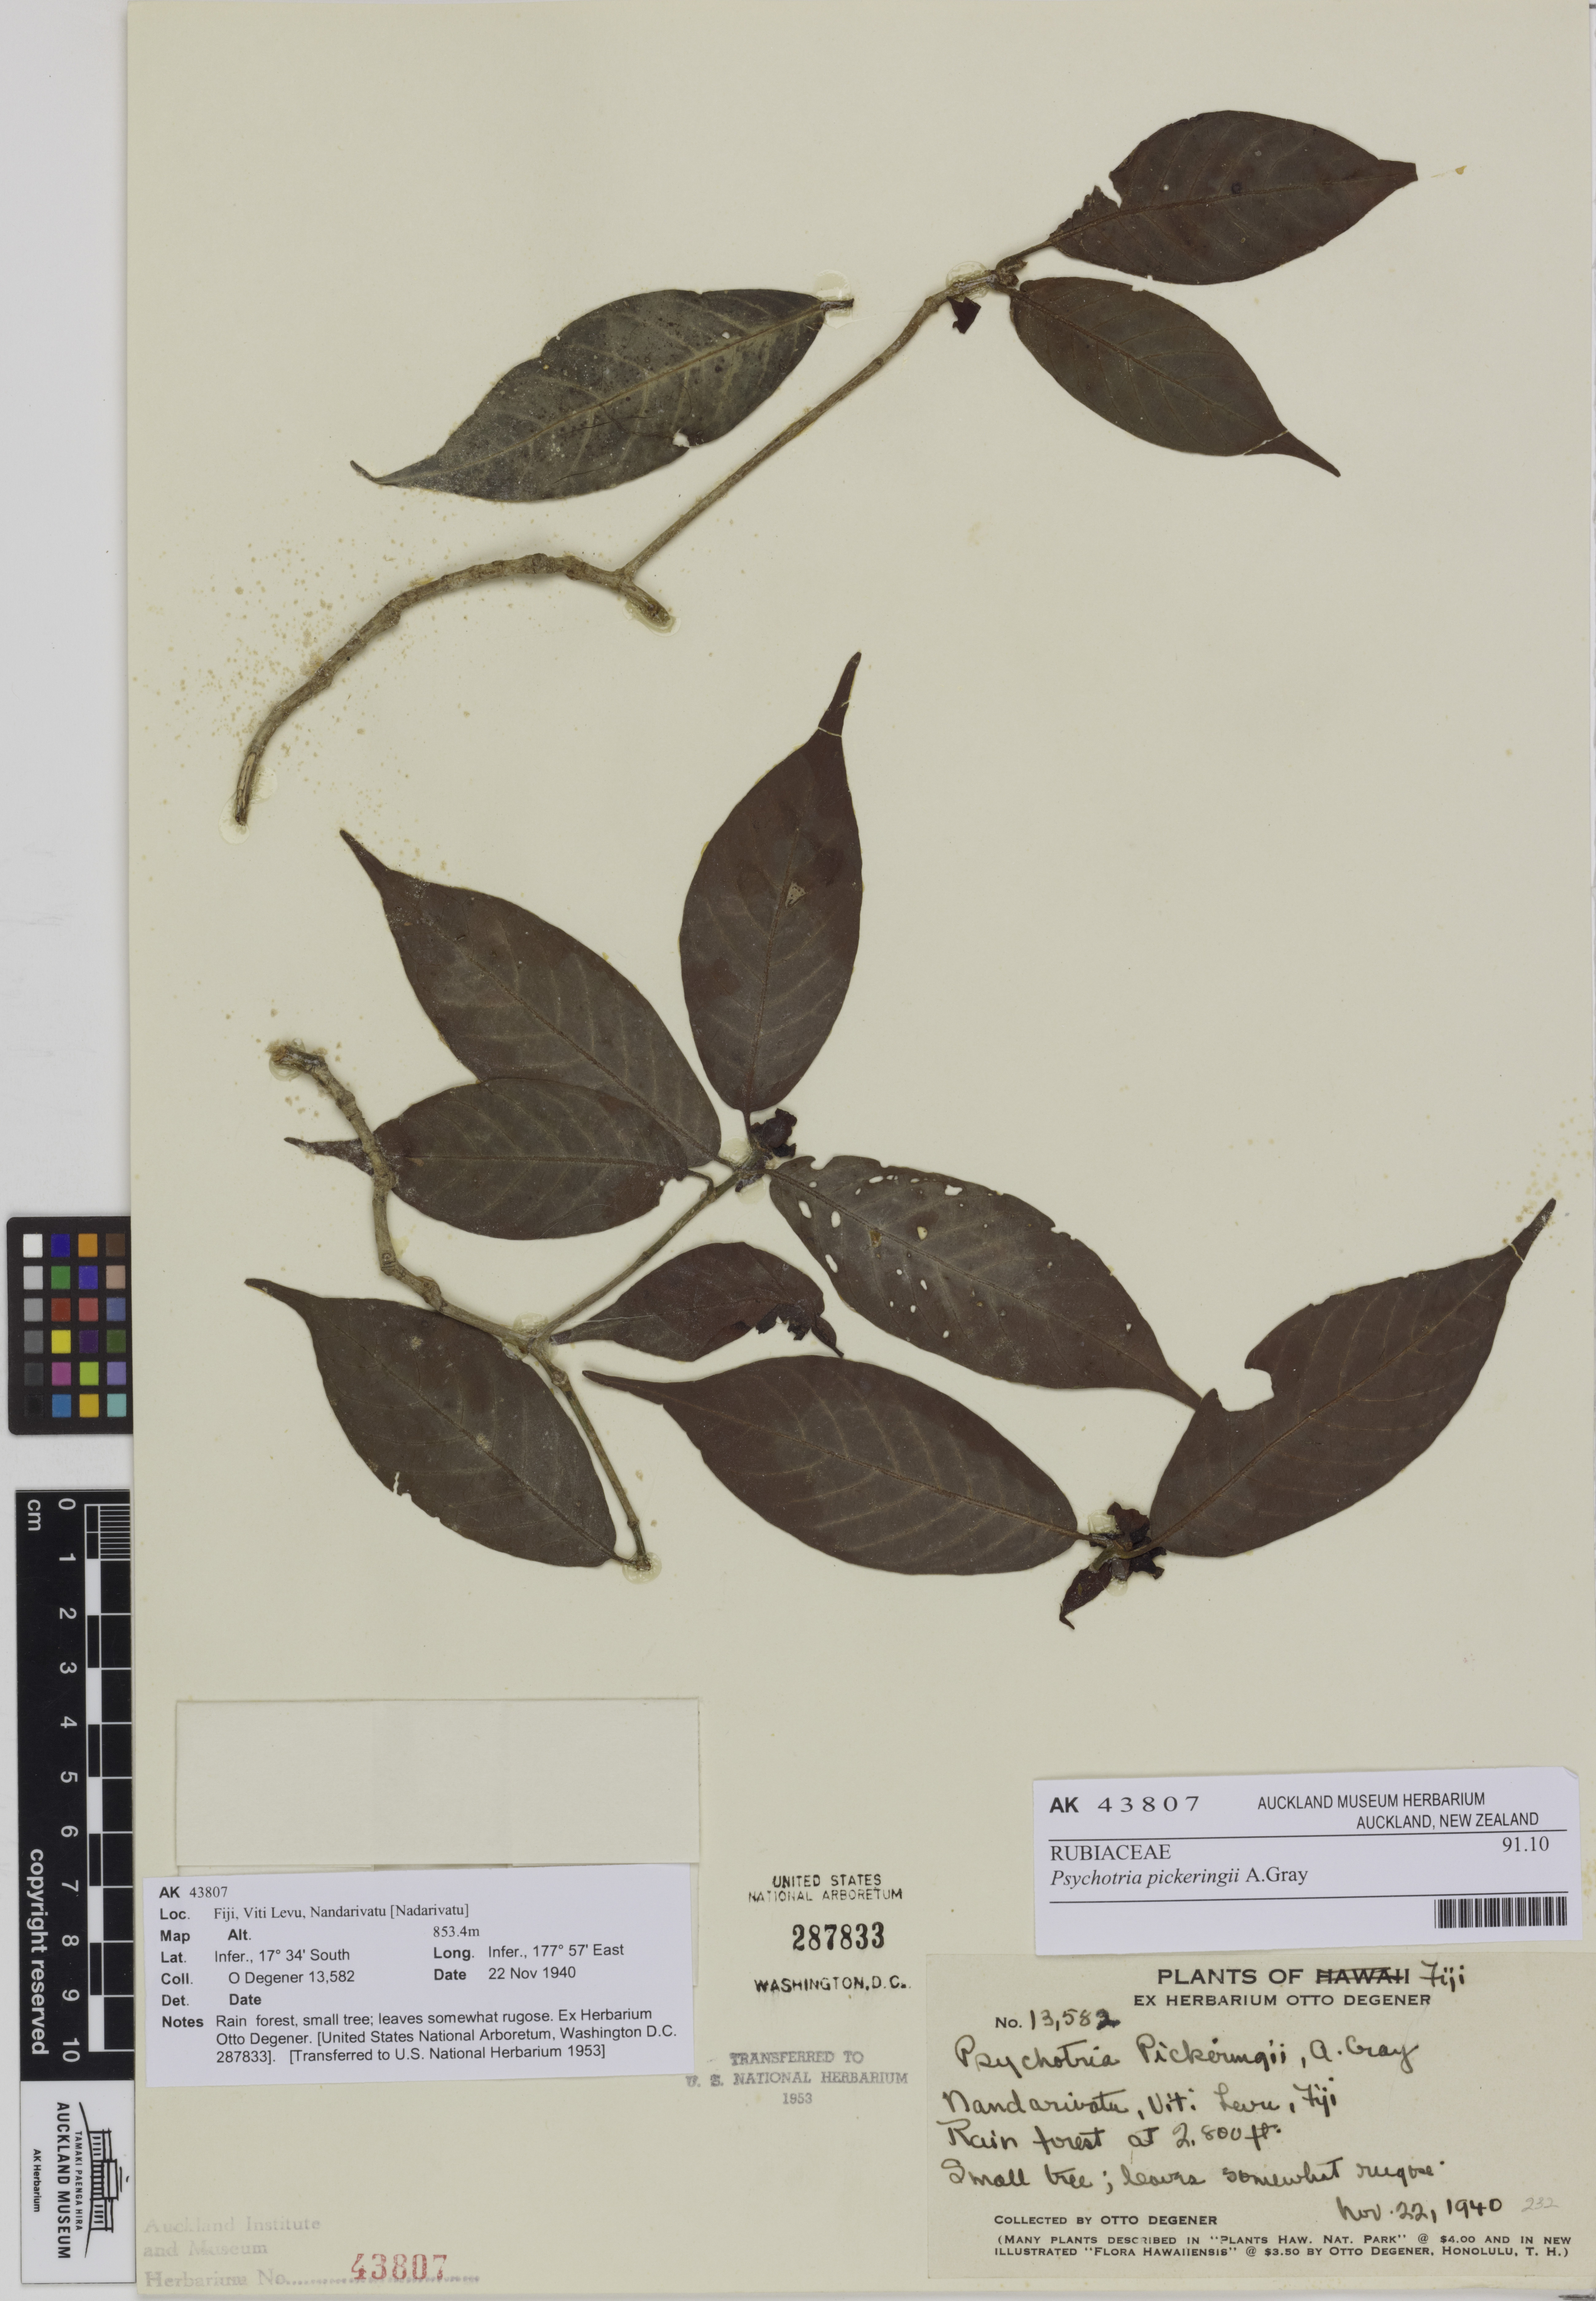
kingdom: Plantae
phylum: Tracheophyta
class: Magnoliopsida
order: Gentianales
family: Rubiaceae
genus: Psychotria
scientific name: Psychotria pickeringii
